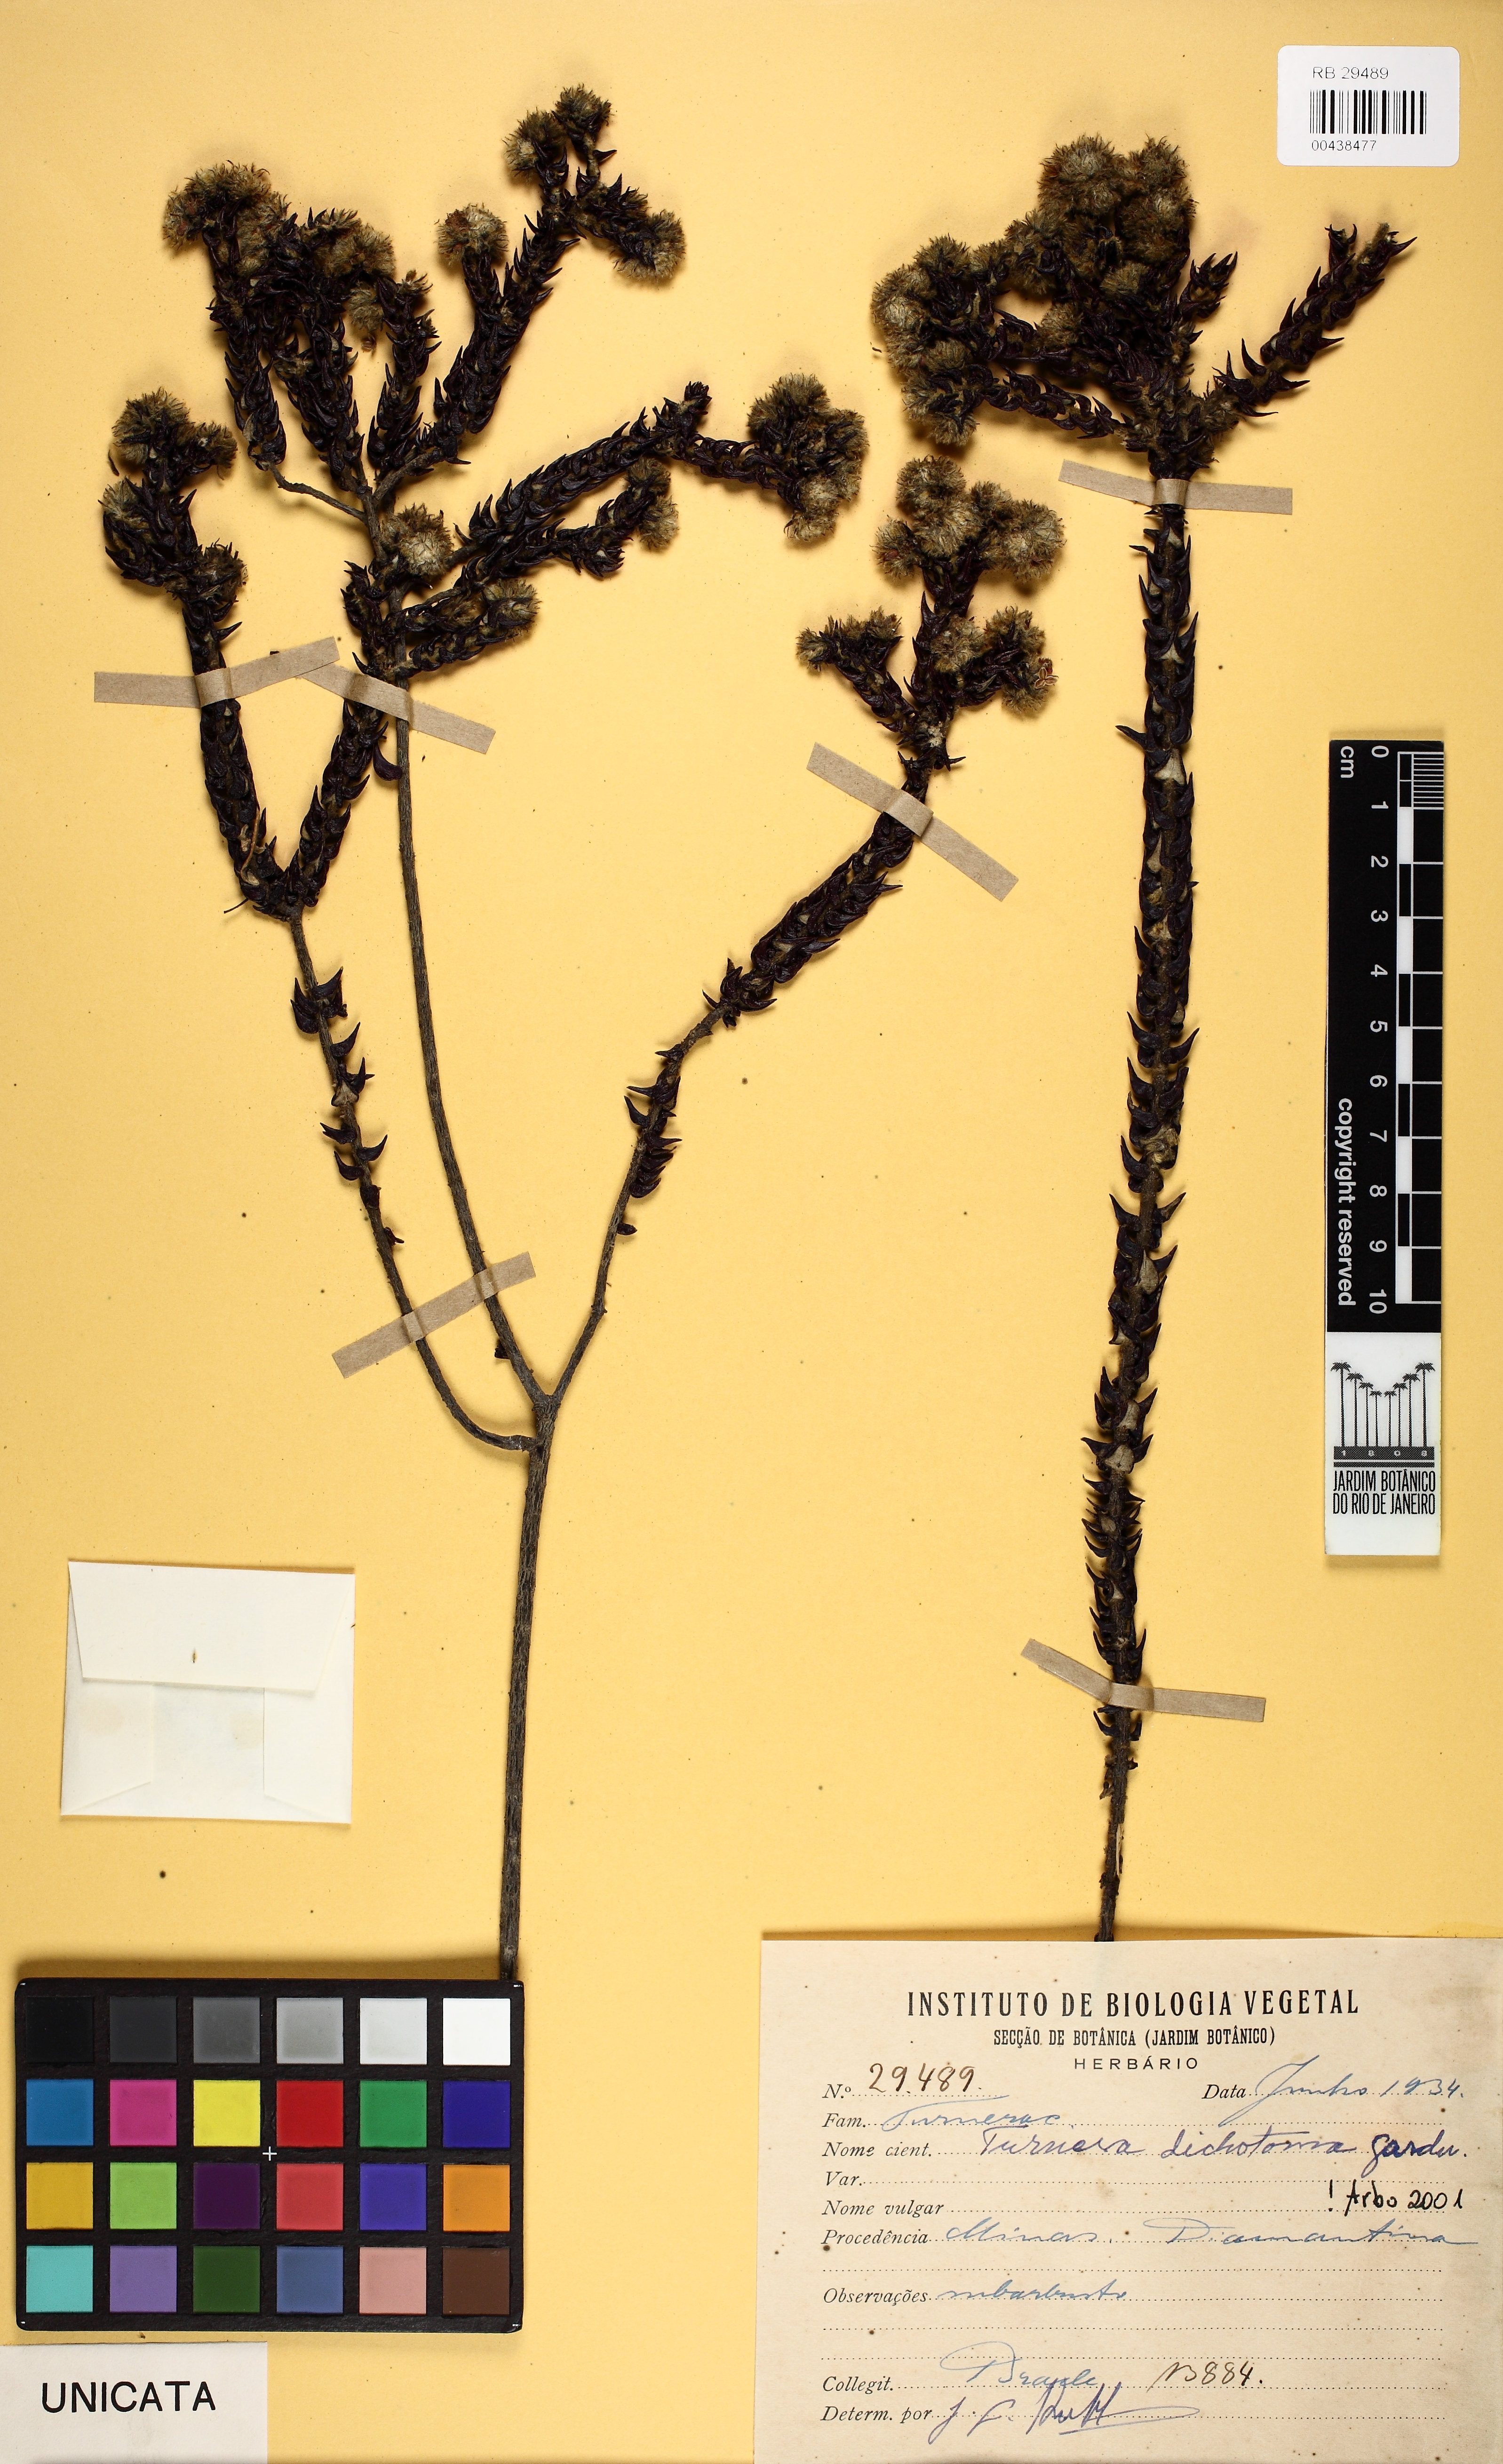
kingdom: Plantae
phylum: Tracheophyta
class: Magnoliopsida
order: Malpighiales
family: Turneraceae
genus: Turnera
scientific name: Turnera dichotoma
